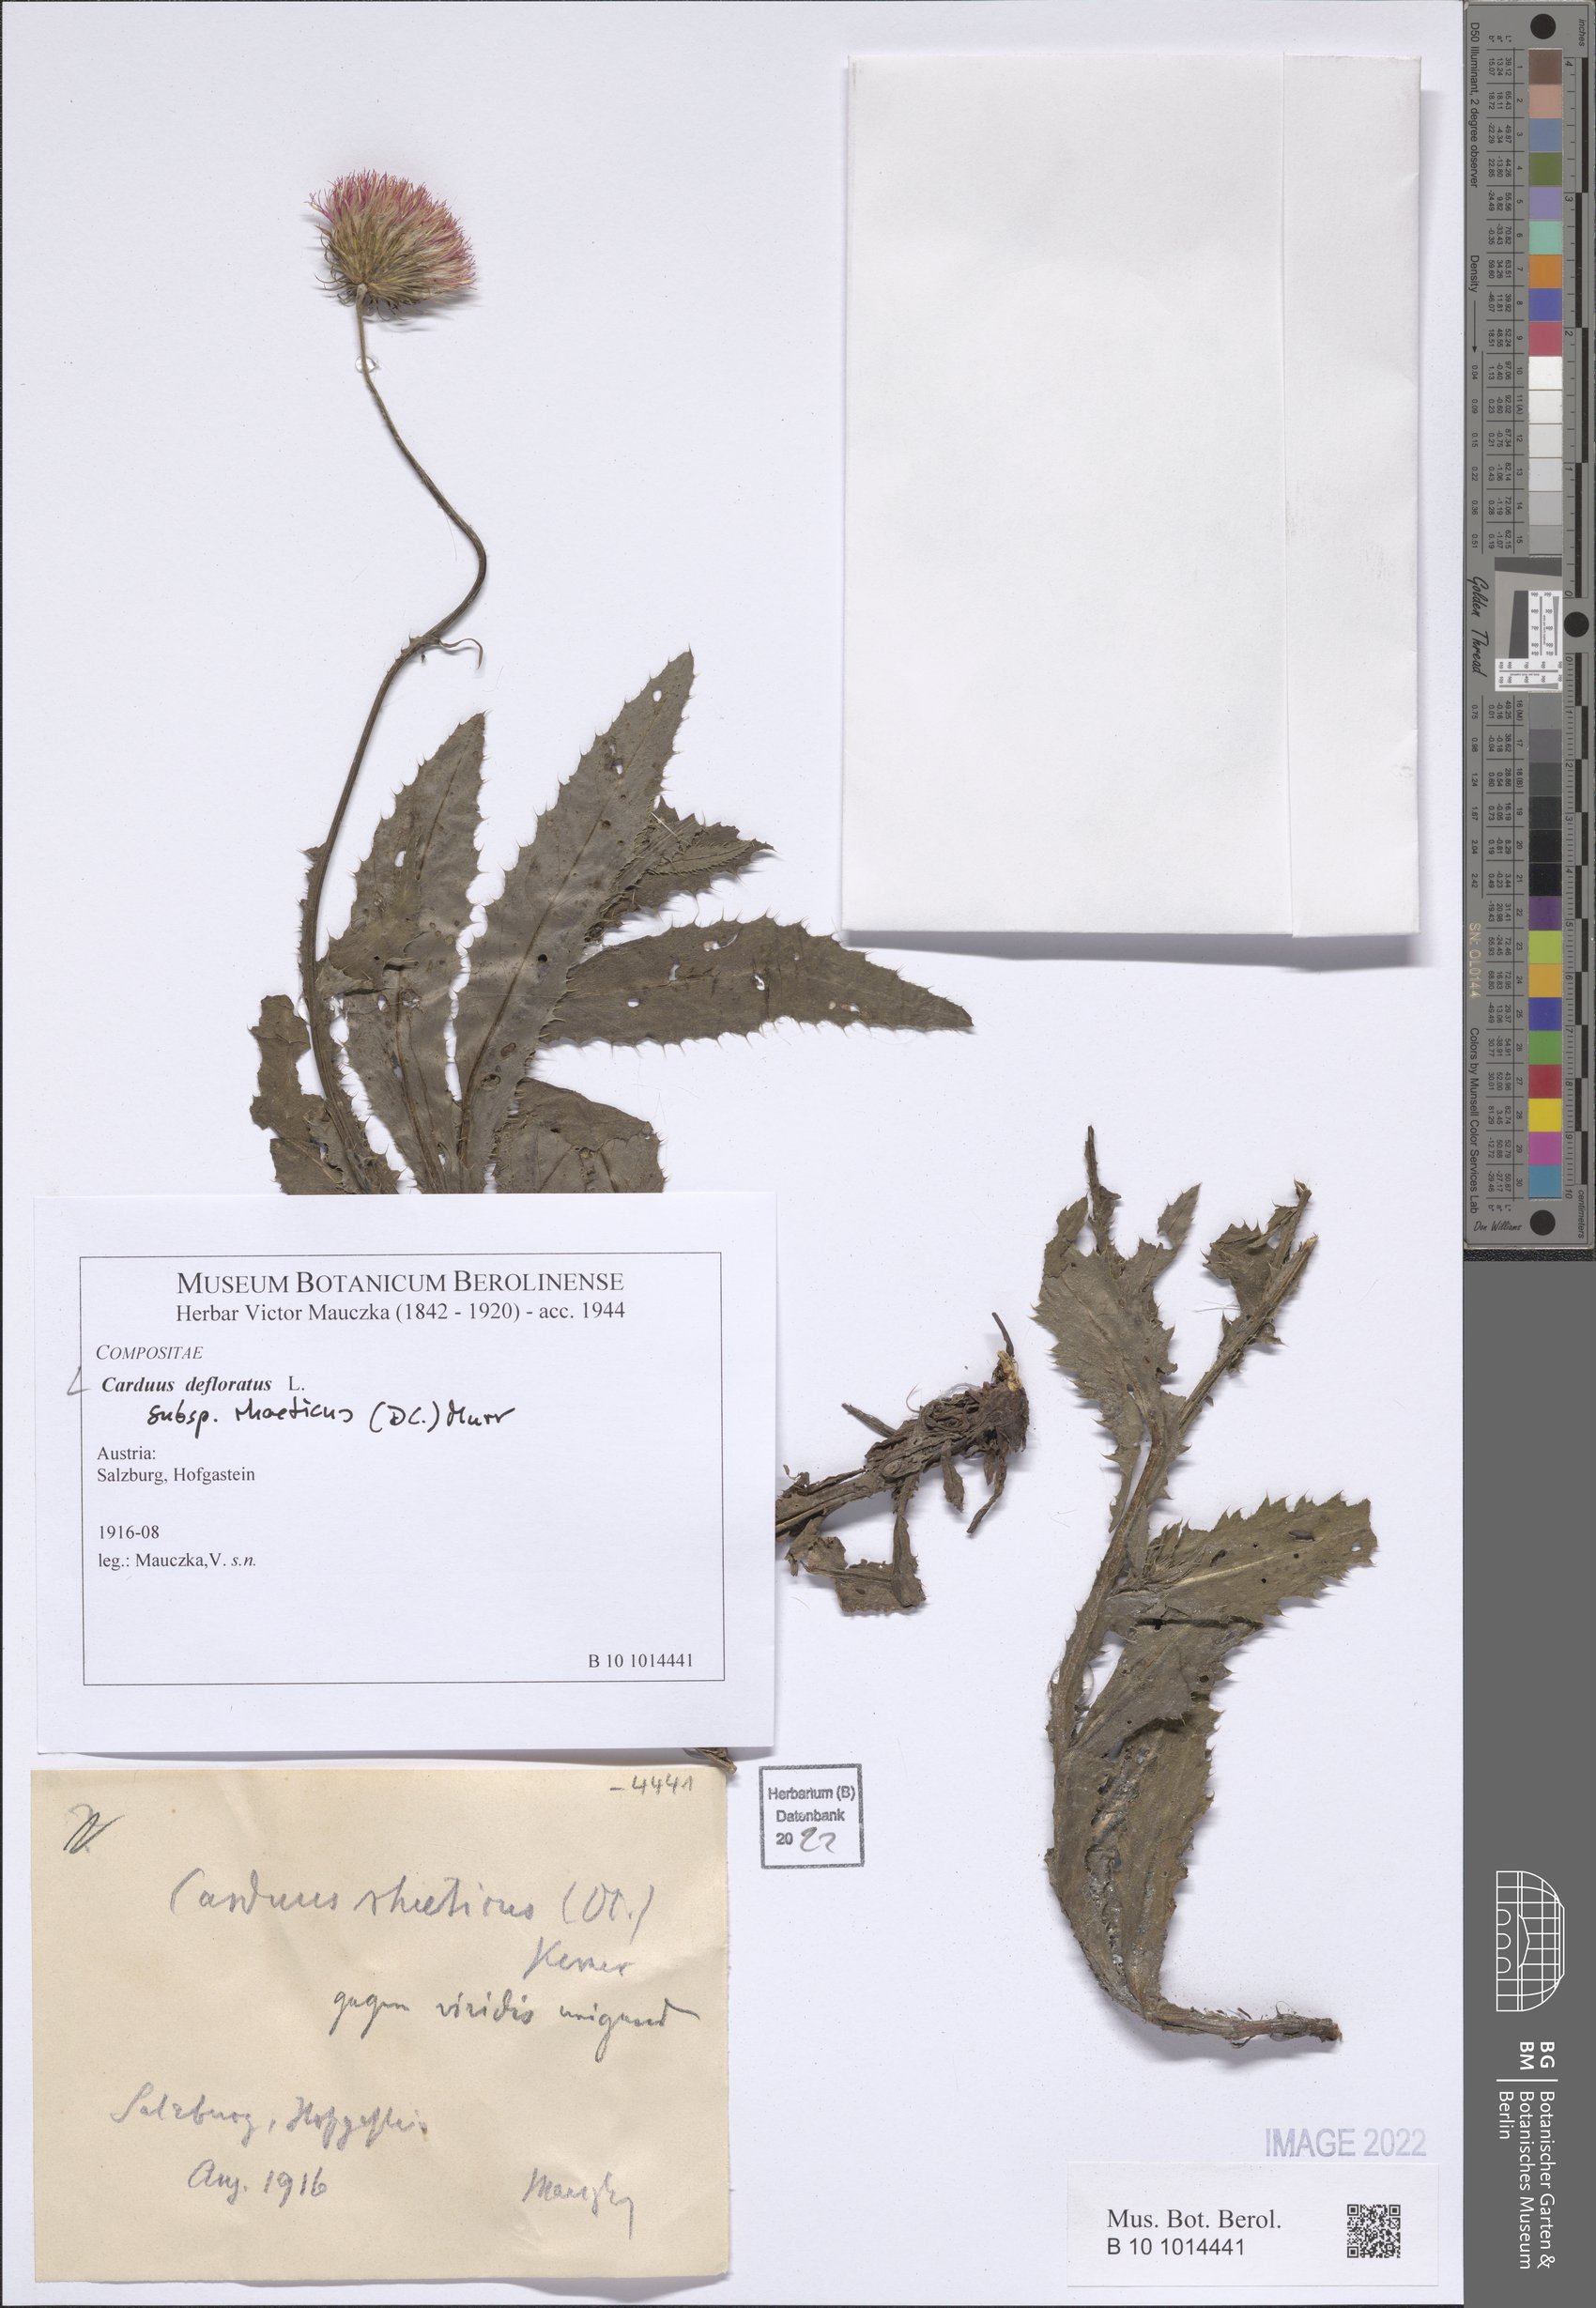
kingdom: Plantae
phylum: Tracheophyta
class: Magnoliopsida
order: Asterales
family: Asteraceae
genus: Carduus
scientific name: Carduus defloratus
